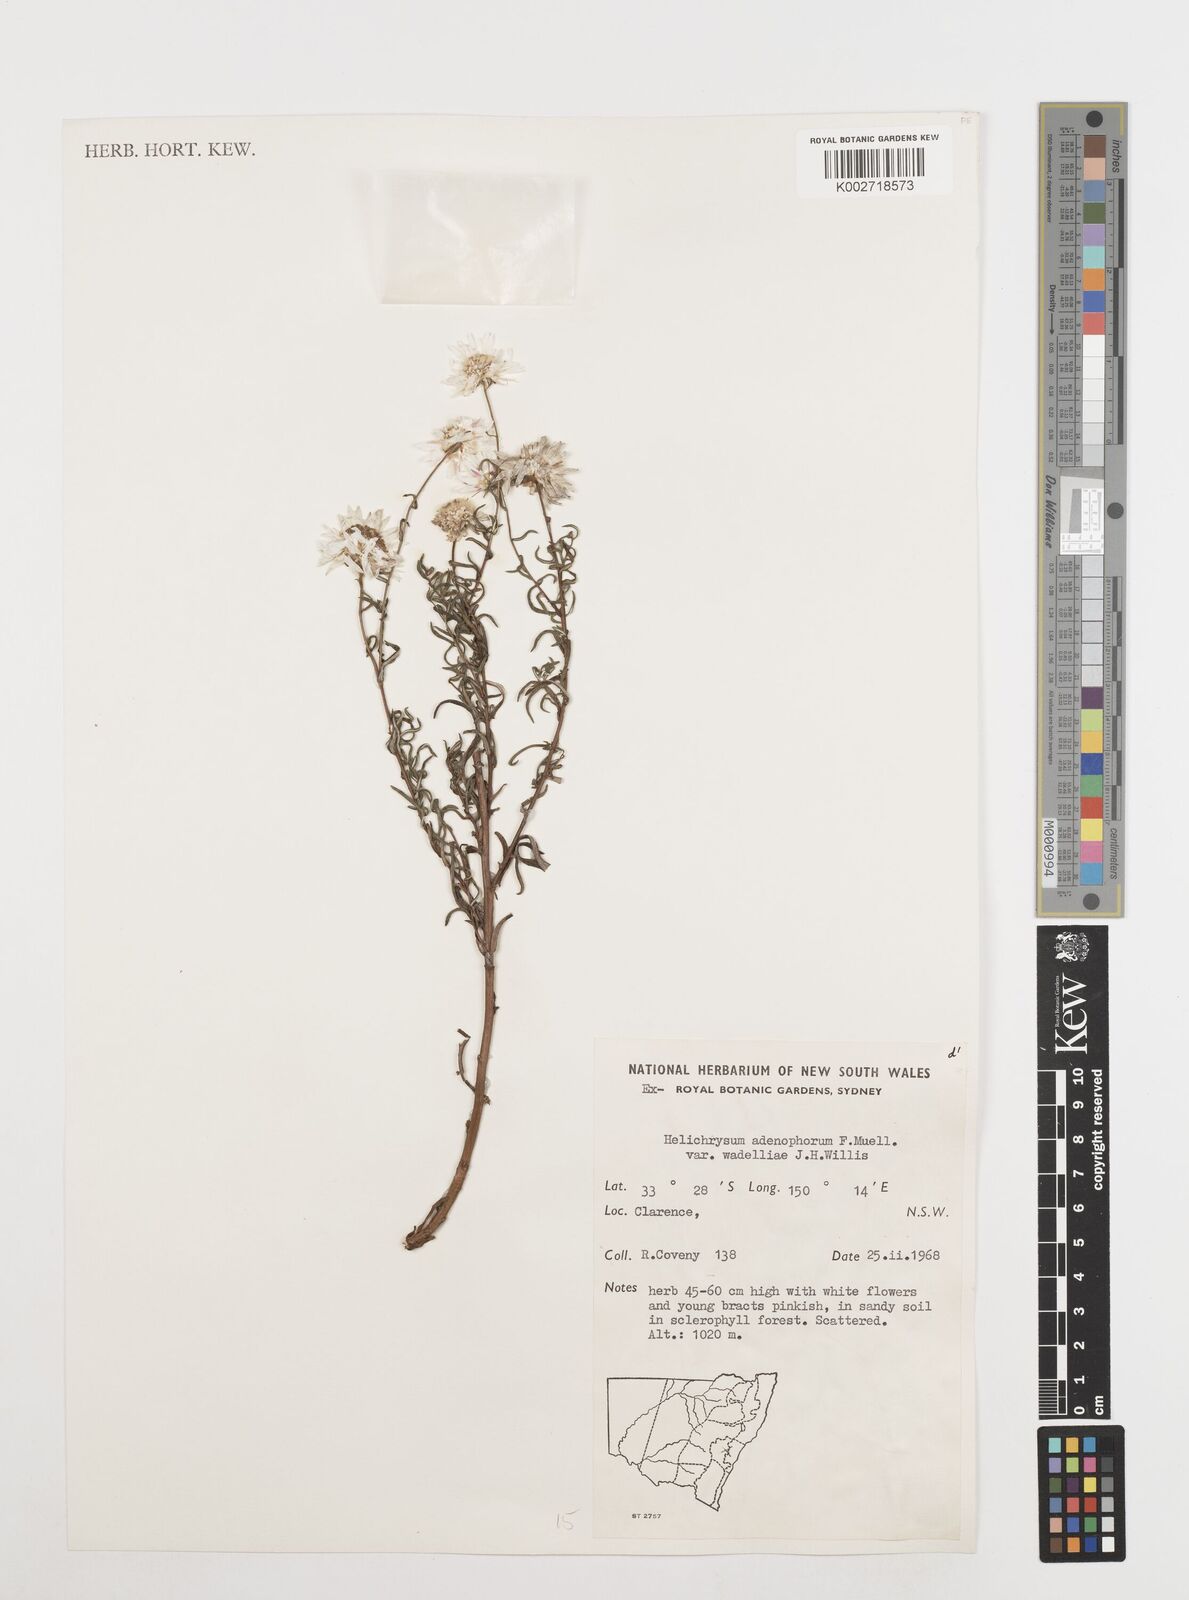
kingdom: Plantae
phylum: Tracheophyta
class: Magnoliopsida
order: Asterales
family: Asteraceae
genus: Coronidium
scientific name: Coronidium waddelliae
